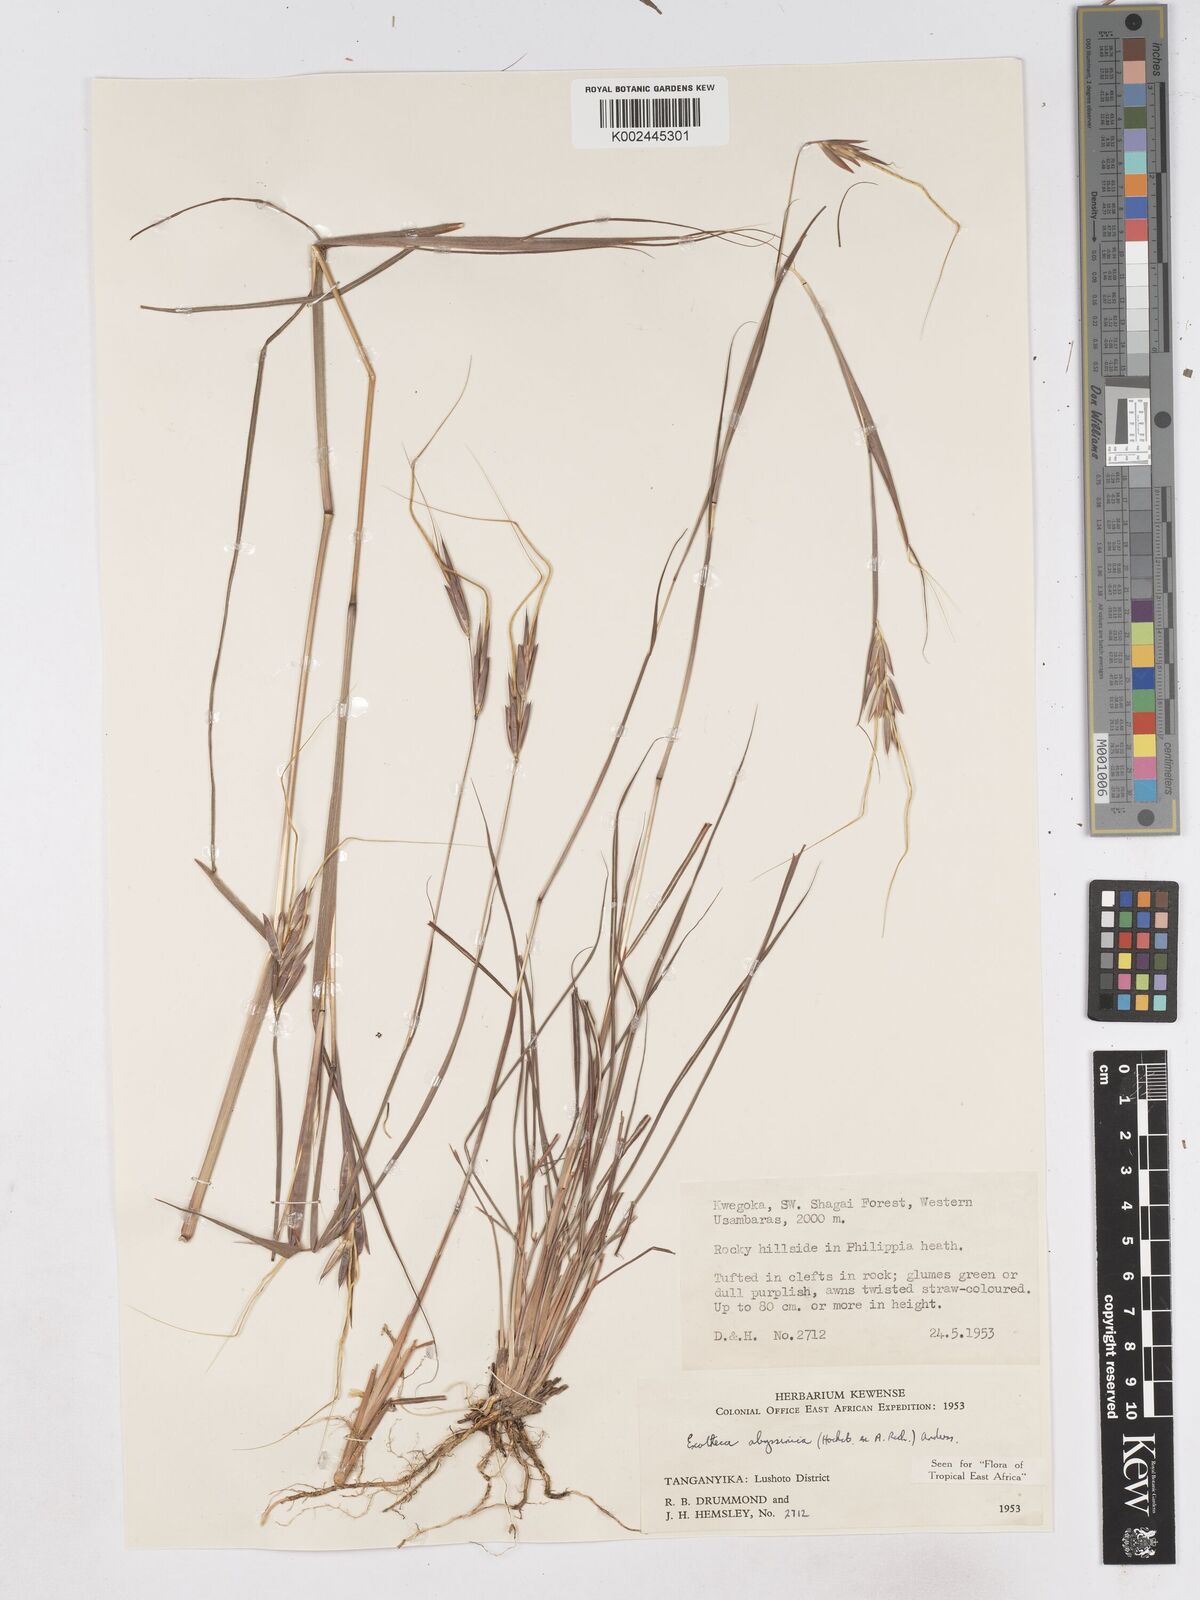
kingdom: Plantae
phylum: Tracheophyta
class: Liliopsida
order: Poales
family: Poaceae
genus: Exotheca
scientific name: Exotheca abyssinica
